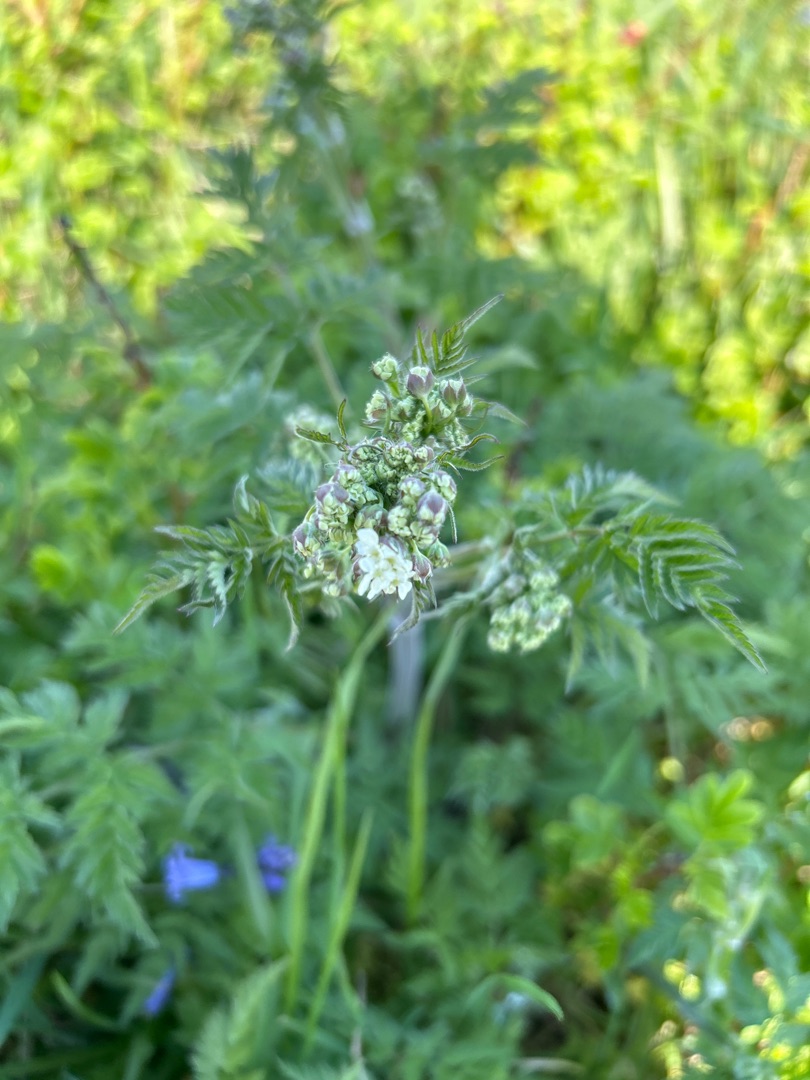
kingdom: Plantae
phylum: Tracheophyta
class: Magnoliopsida
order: Apiales
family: Apiaceae
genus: Anthriscus
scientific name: Anthriscus sylvestris
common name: Vild kørvel
